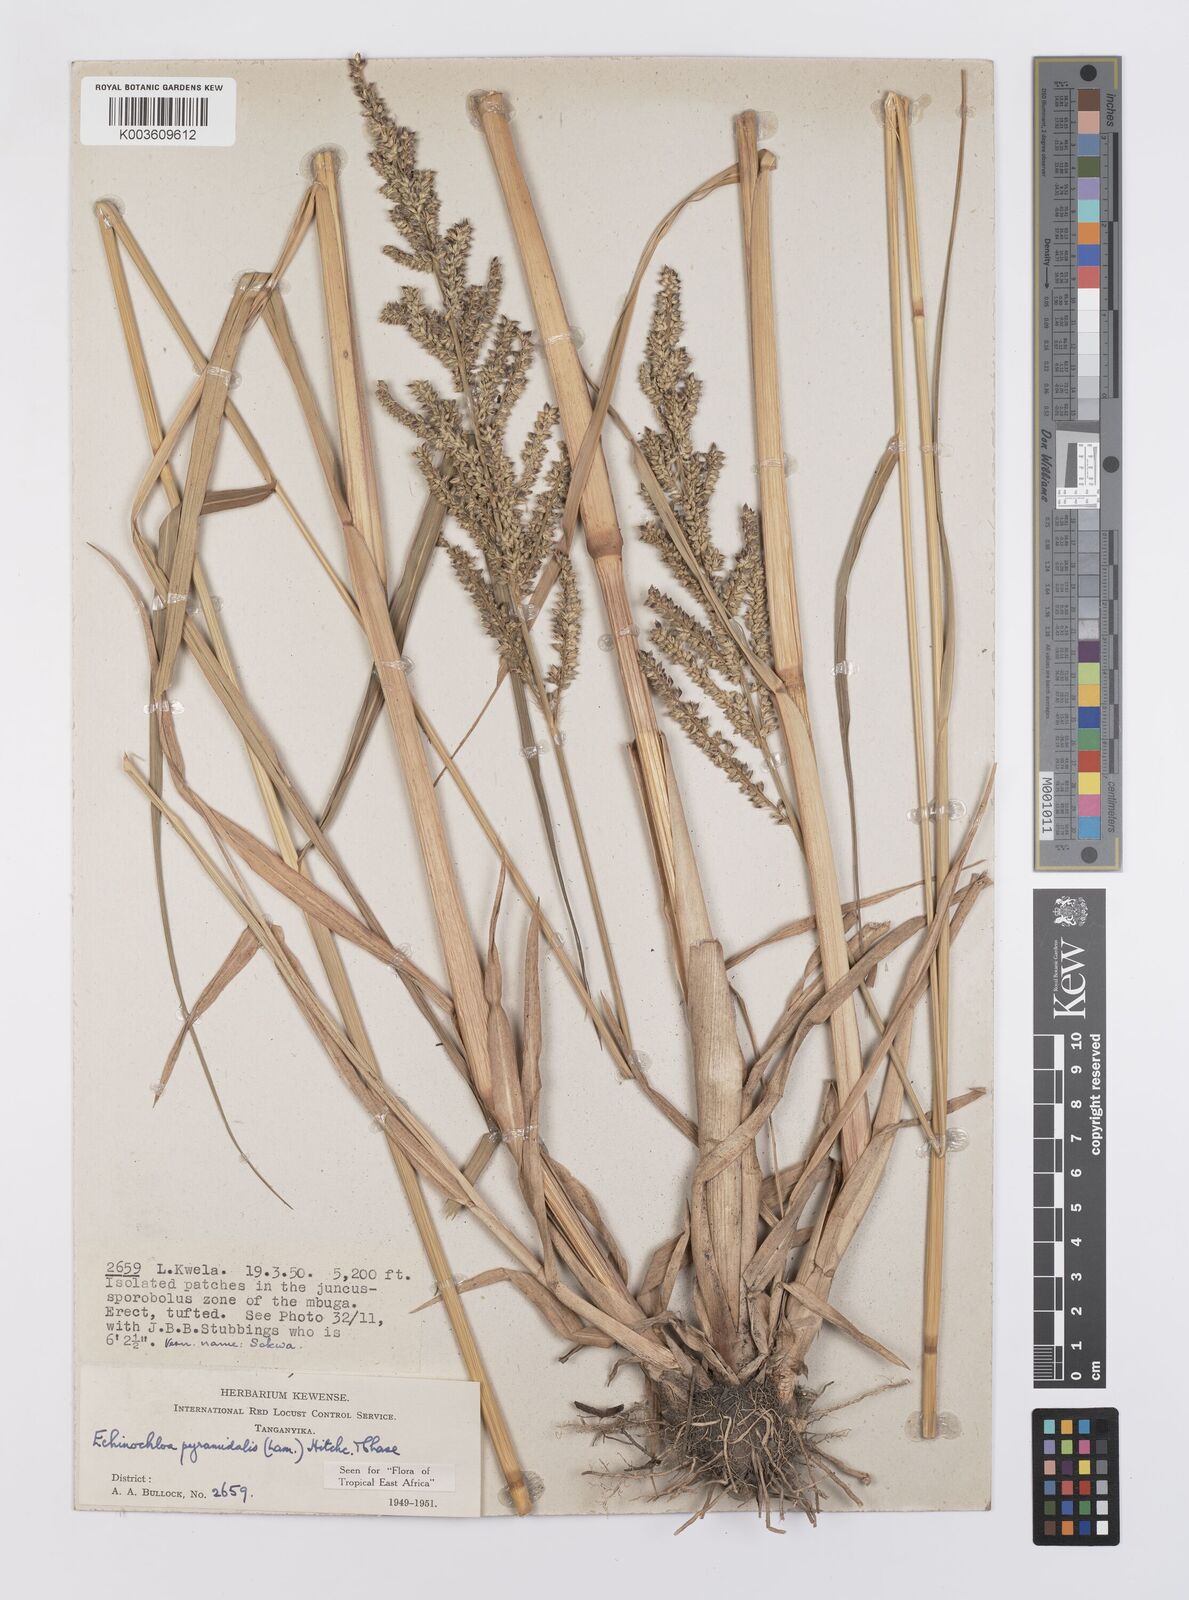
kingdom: Plantae
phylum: Tracheophyta
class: Liliopsida
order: Poales
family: Poaceae
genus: Echinochloa
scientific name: Echinochloa pyramidalis
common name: Antelope grass
